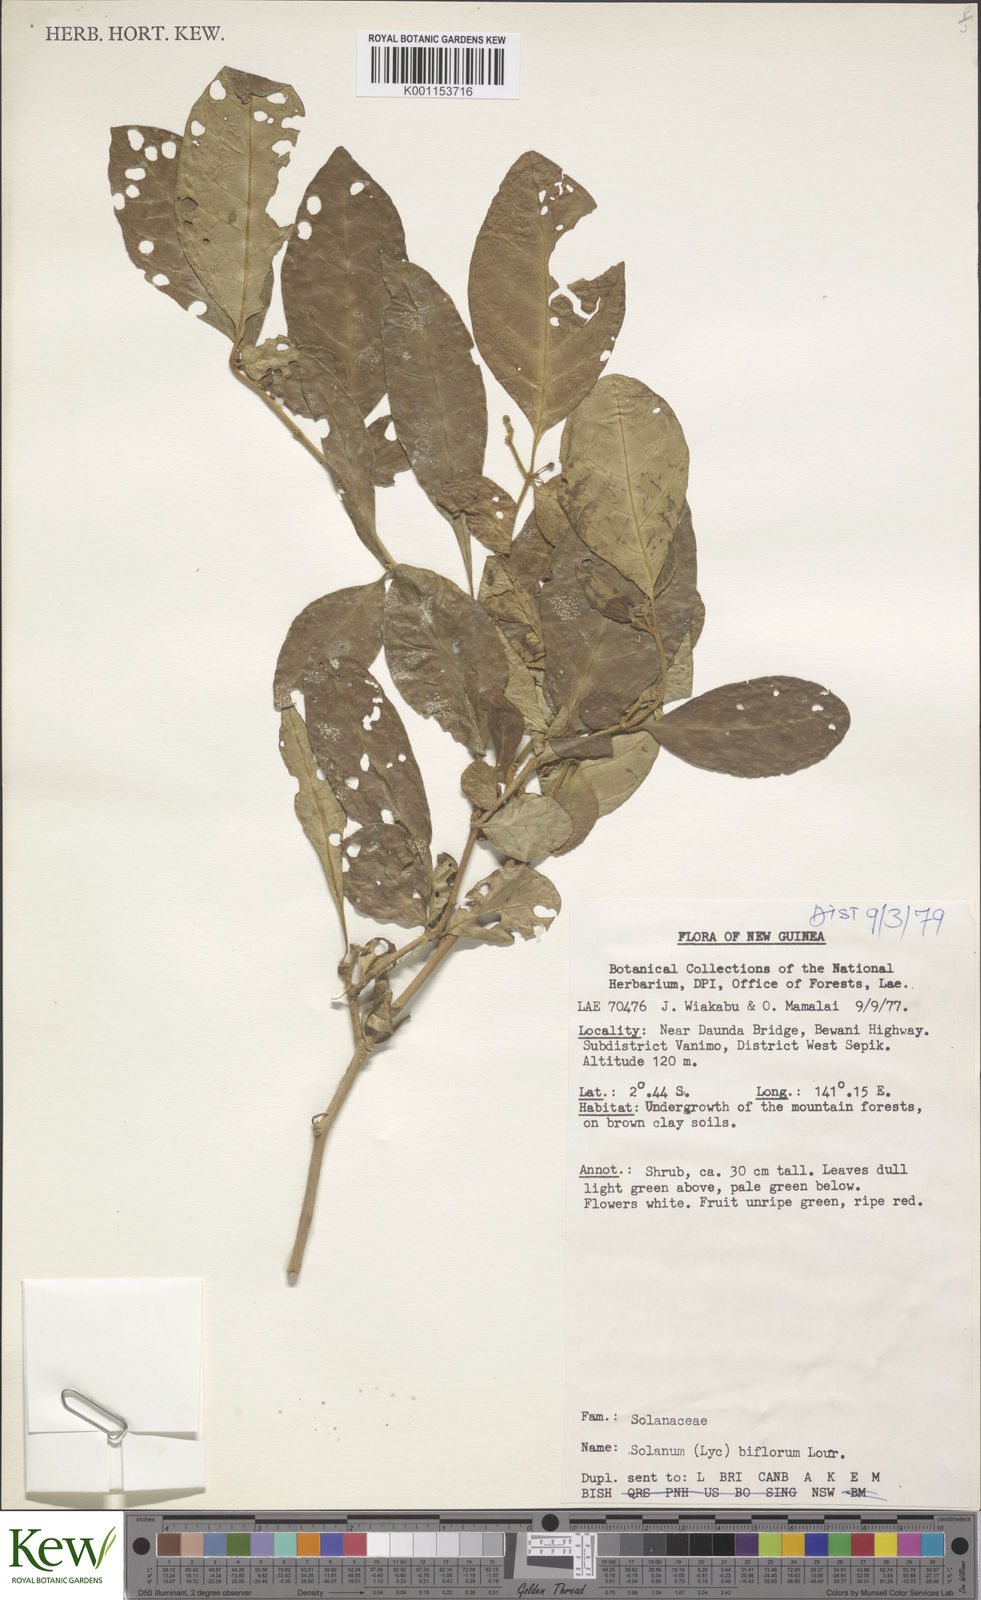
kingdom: Plantae
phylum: Tracheophyta
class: Magnoliopsida
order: Solanales
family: Solanaceae
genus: Lycianthes
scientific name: Lycianthes biflora
